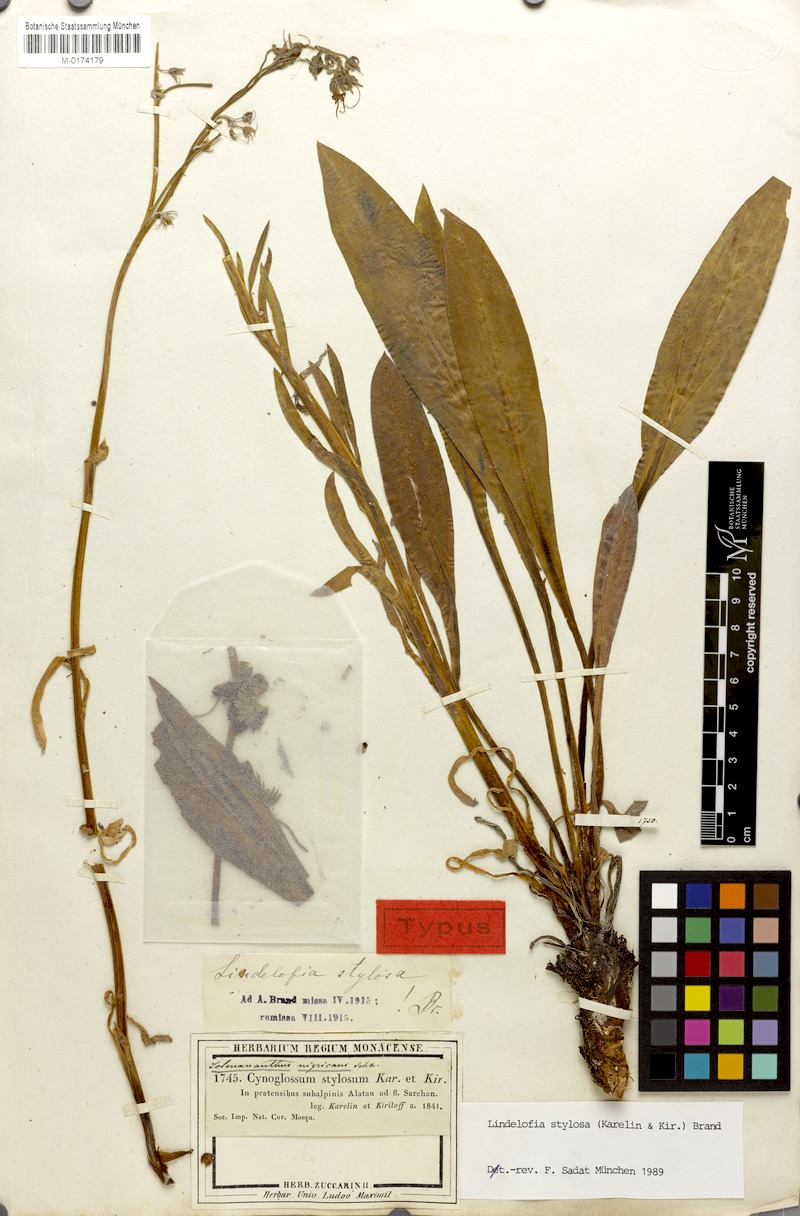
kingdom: Plantae
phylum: Tracheophyta
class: Magnoliopsida
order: Boraginales
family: Boraginaceae
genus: Lindelofia
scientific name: Lindelofia stylosa
